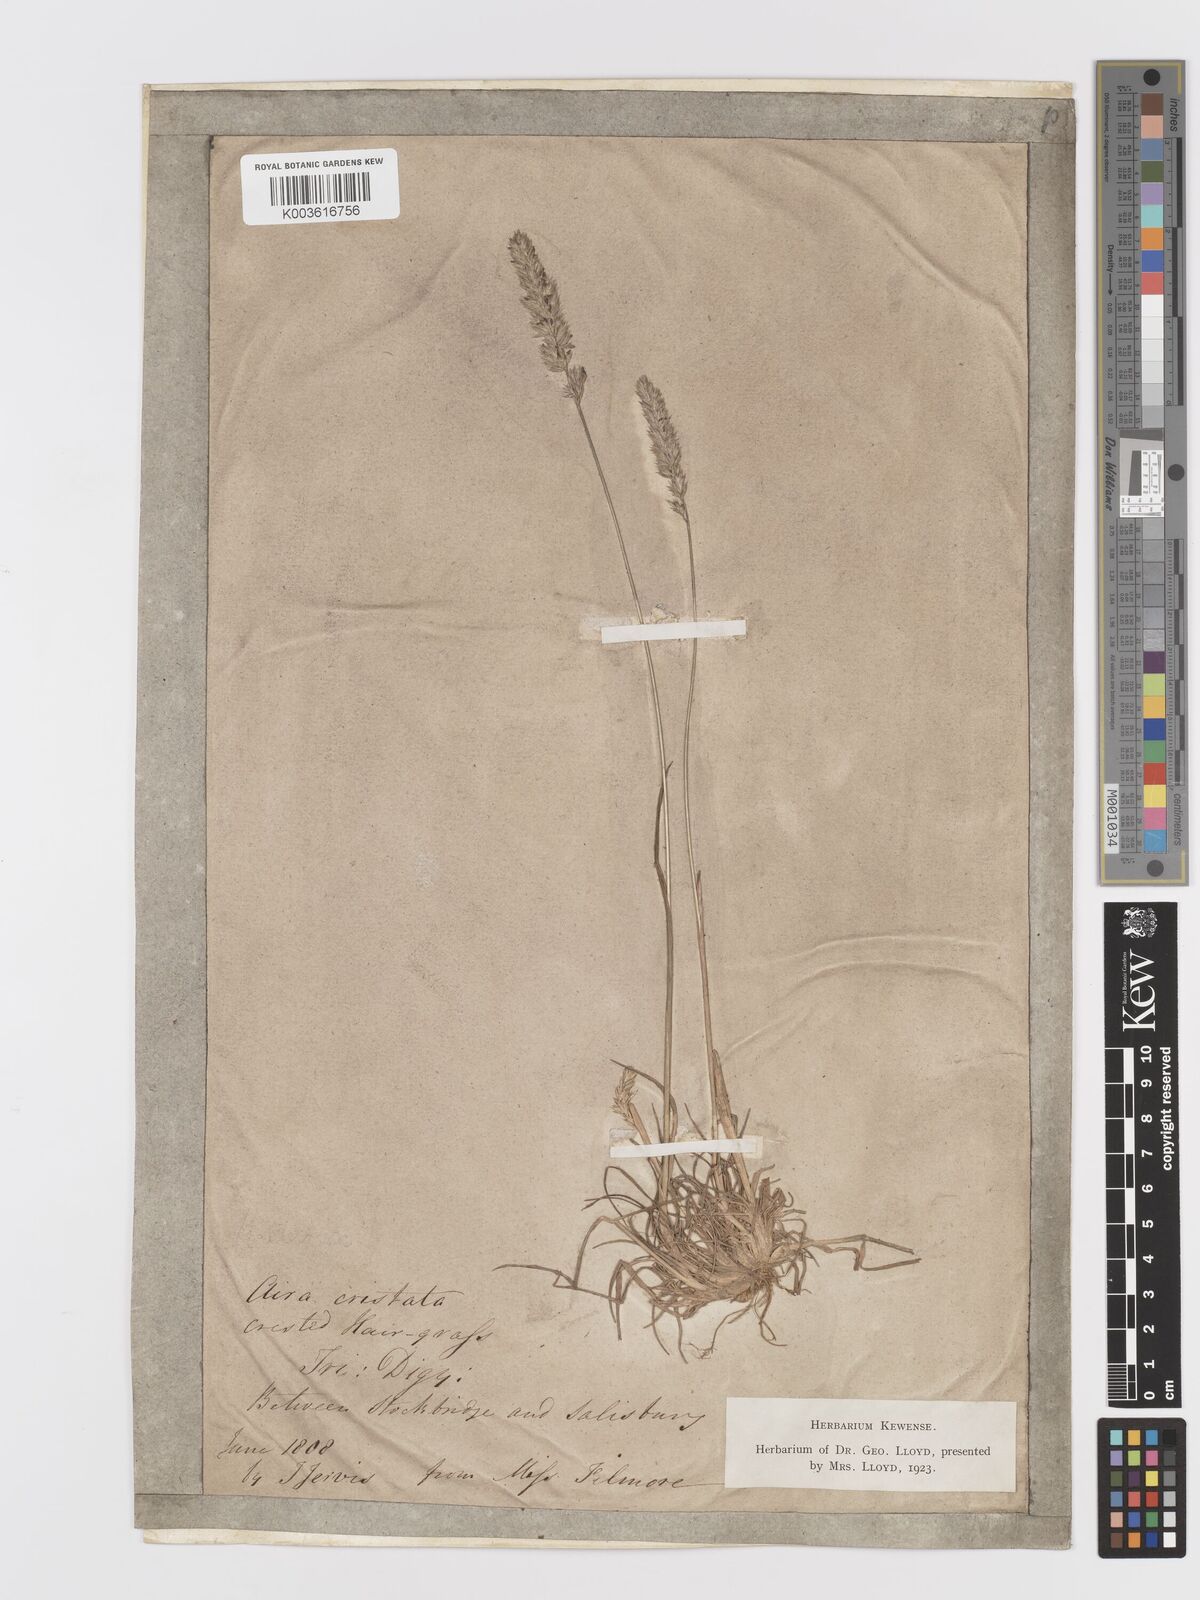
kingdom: Plantae
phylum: Tracheophyta
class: Liliopsida
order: Poales
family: Poaceae
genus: Koeleria
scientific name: Koeleria
